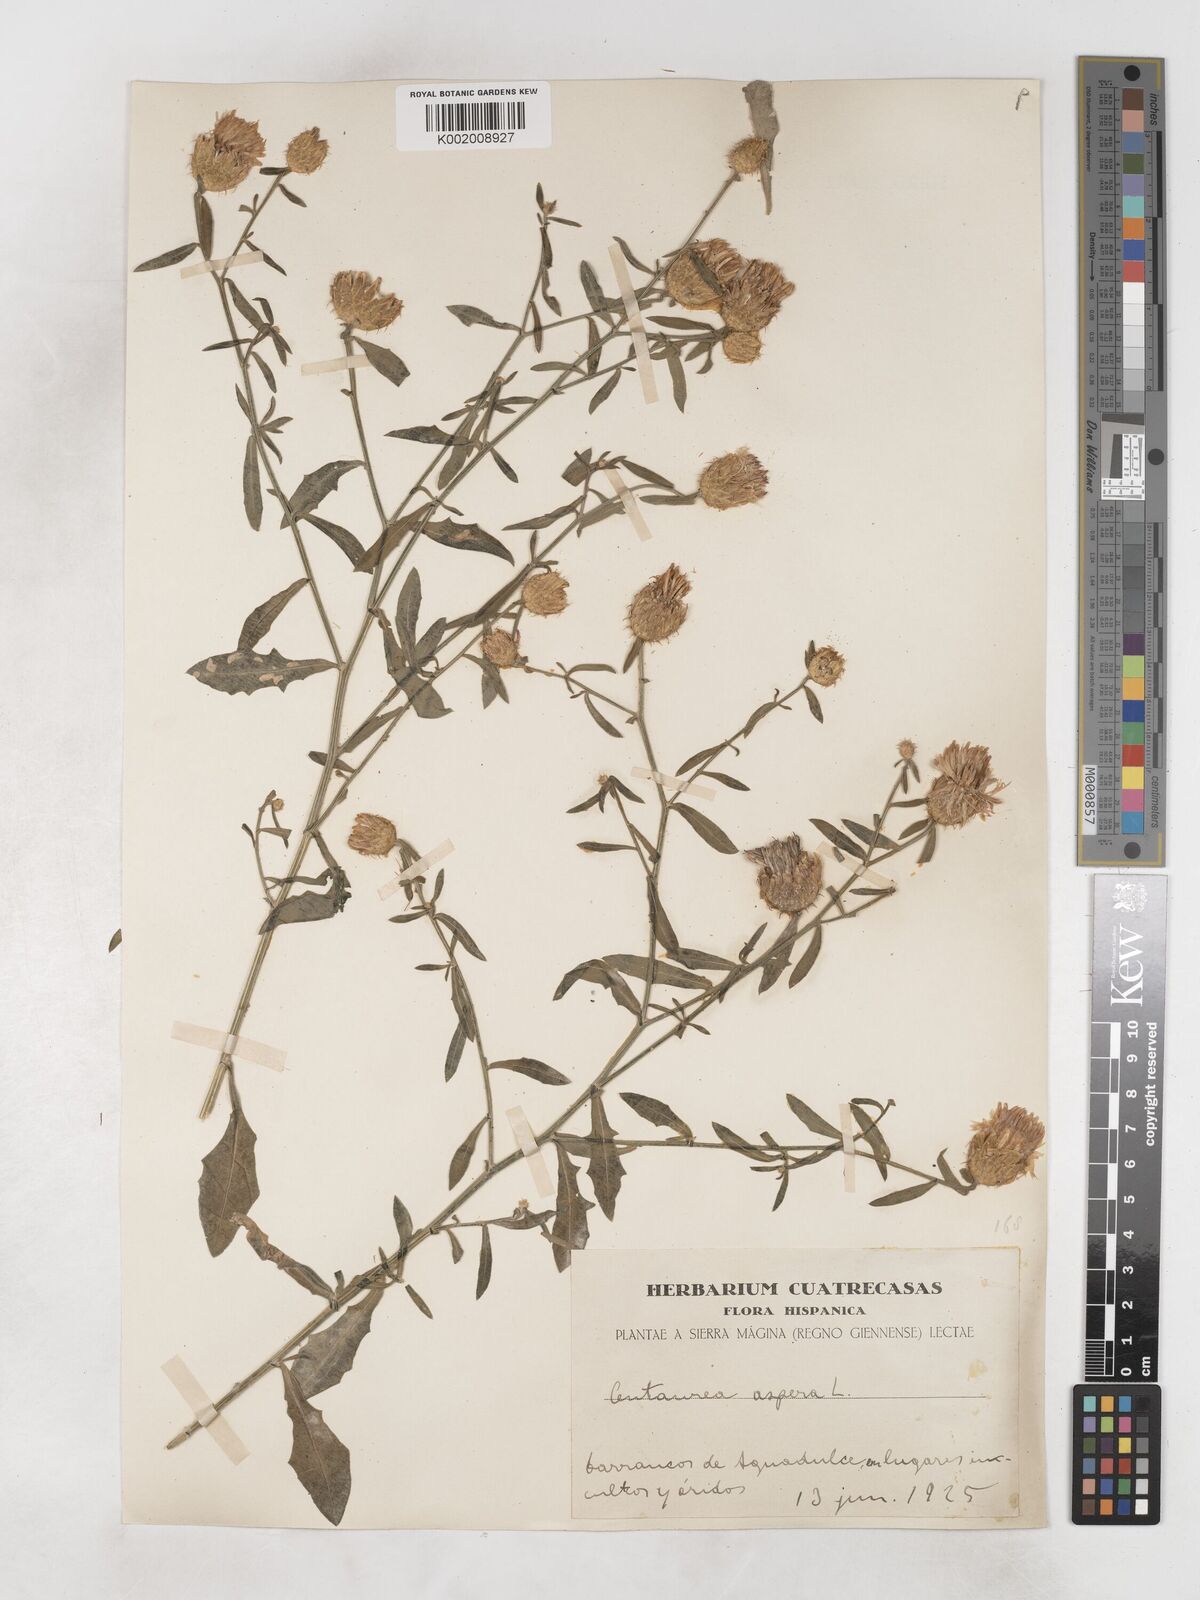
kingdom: Plantae
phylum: Tracheophyta
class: Magnoliopsida
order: Asterales
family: Asteraceae
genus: Centaurea
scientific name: Centaurea aspera
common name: Rough star-thistle
